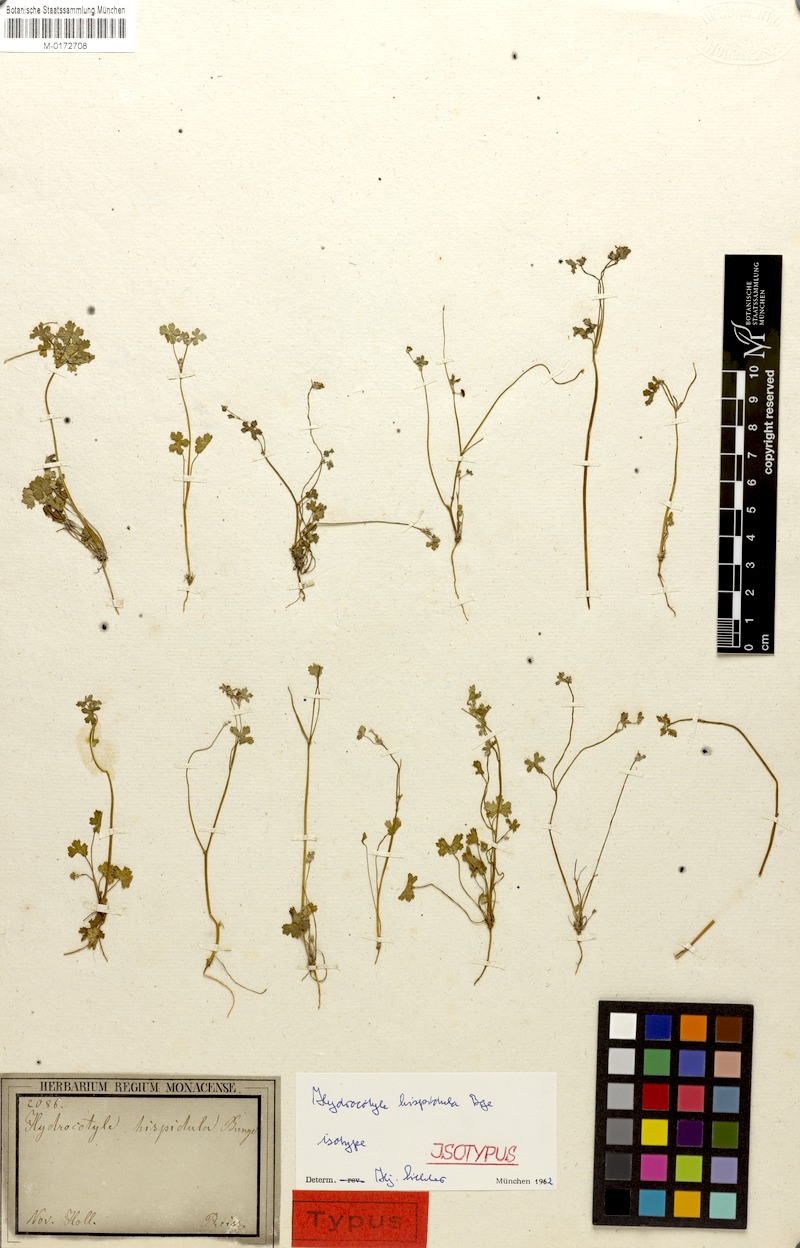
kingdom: Plantae
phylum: Tracheophyta
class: Magnoliopsida
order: Apiales
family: Araliaceae
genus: Hydrocotyle
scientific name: Hydrocotyle hispidula
